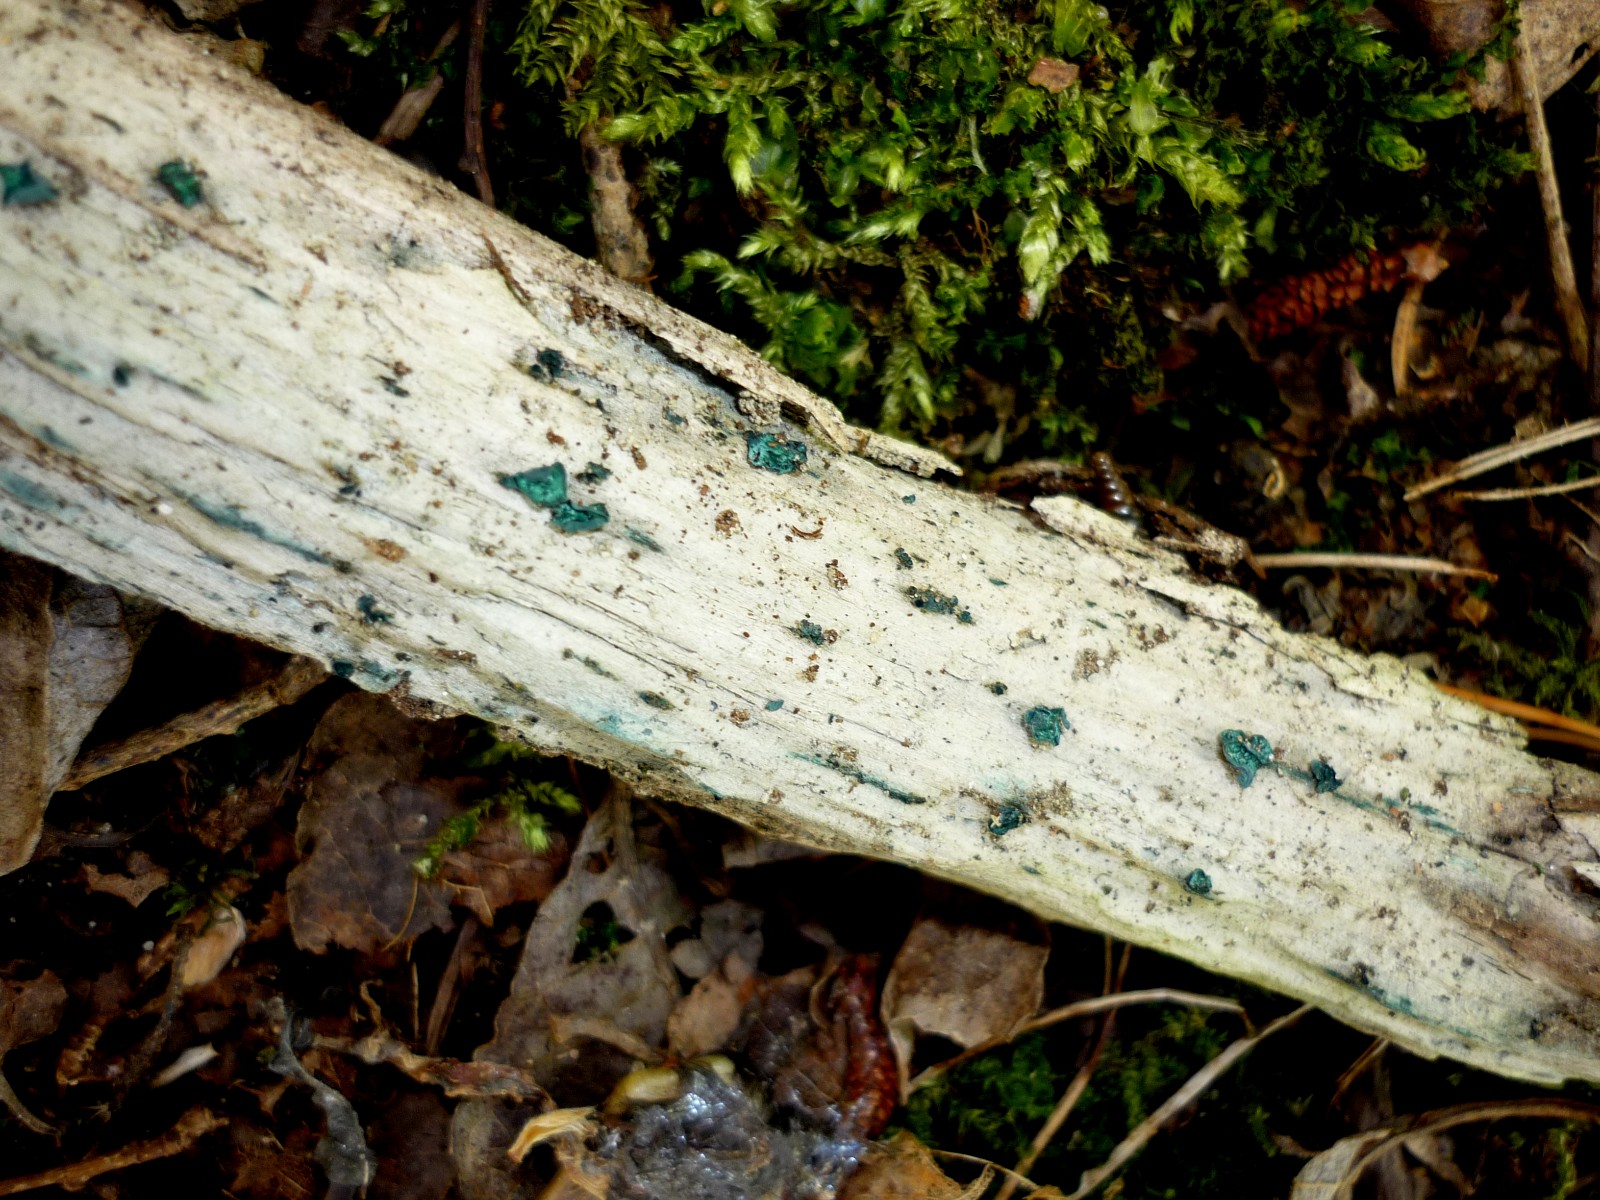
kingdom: Fungi
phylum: Ascomycota
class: Leotiomycetes
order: Helotiales
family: Chlorociboriaceae
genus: Chlorociboria
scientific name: Chlorociboria aeruginascens
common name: almindelig grønskive
